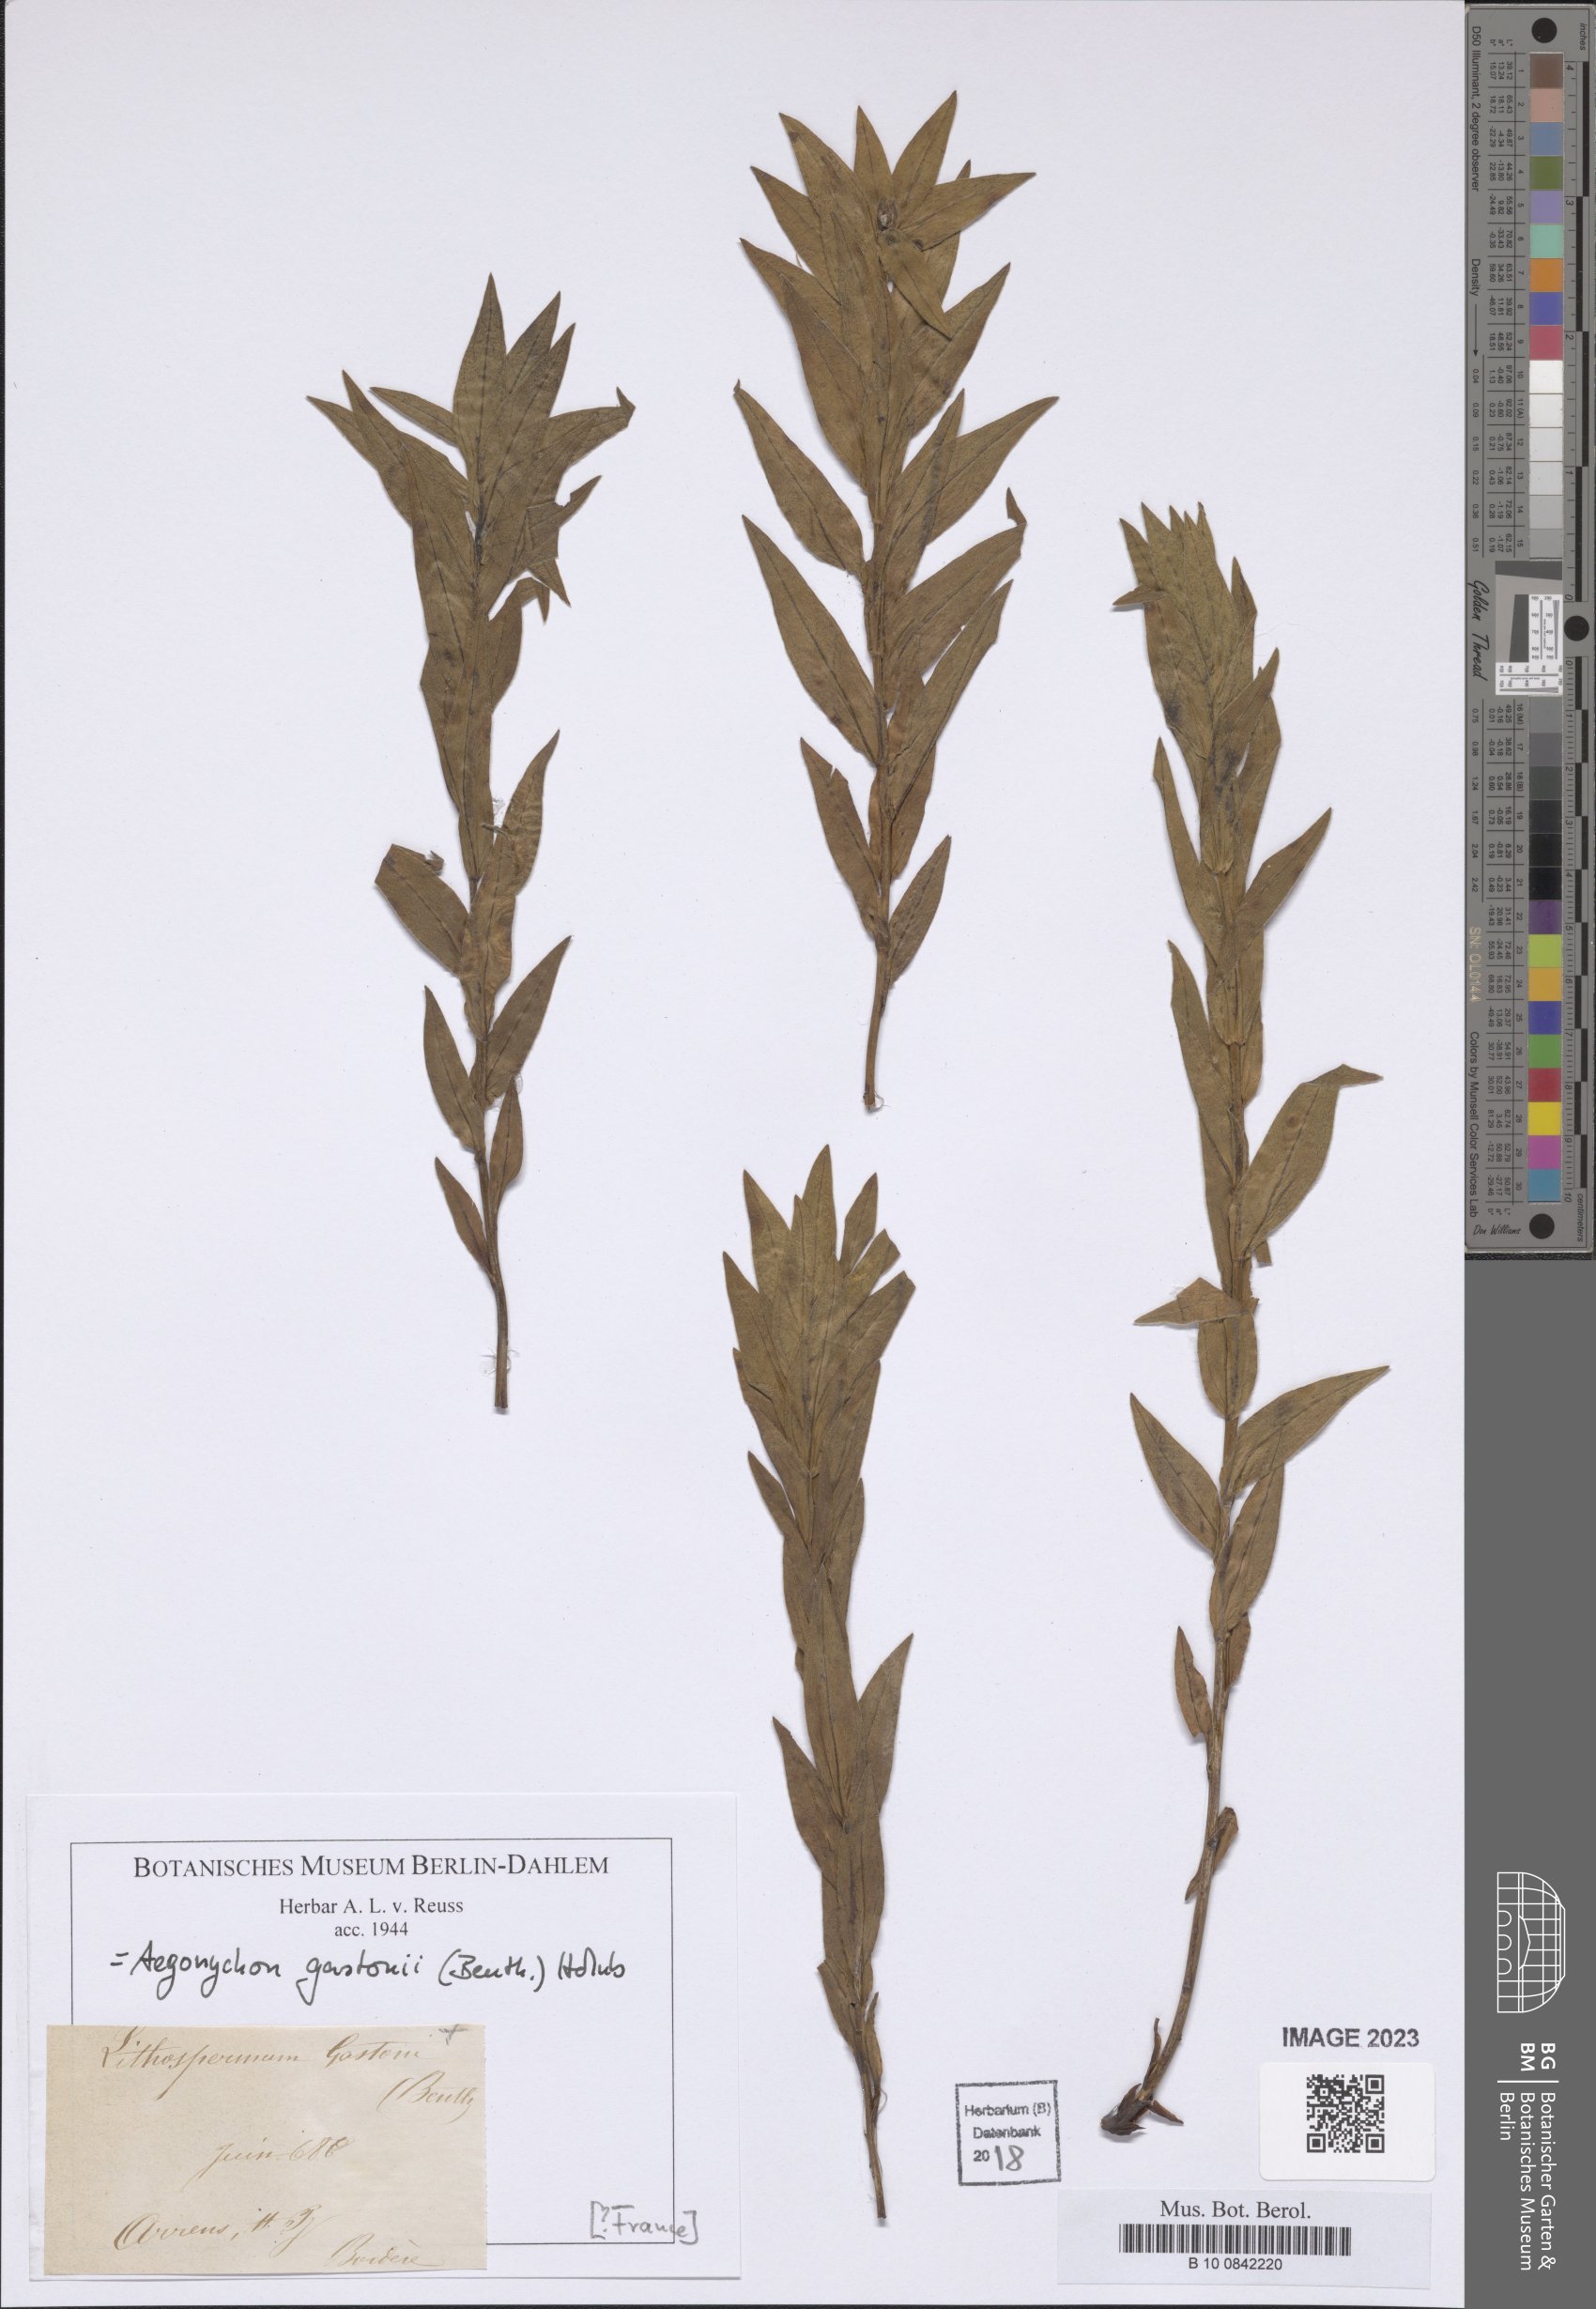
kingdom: Plantae
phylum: Tracheophyta
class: Magnoliopsida
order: Boraginales
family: Boraginaceae
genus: Glandora
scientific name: Glandora gastonii
